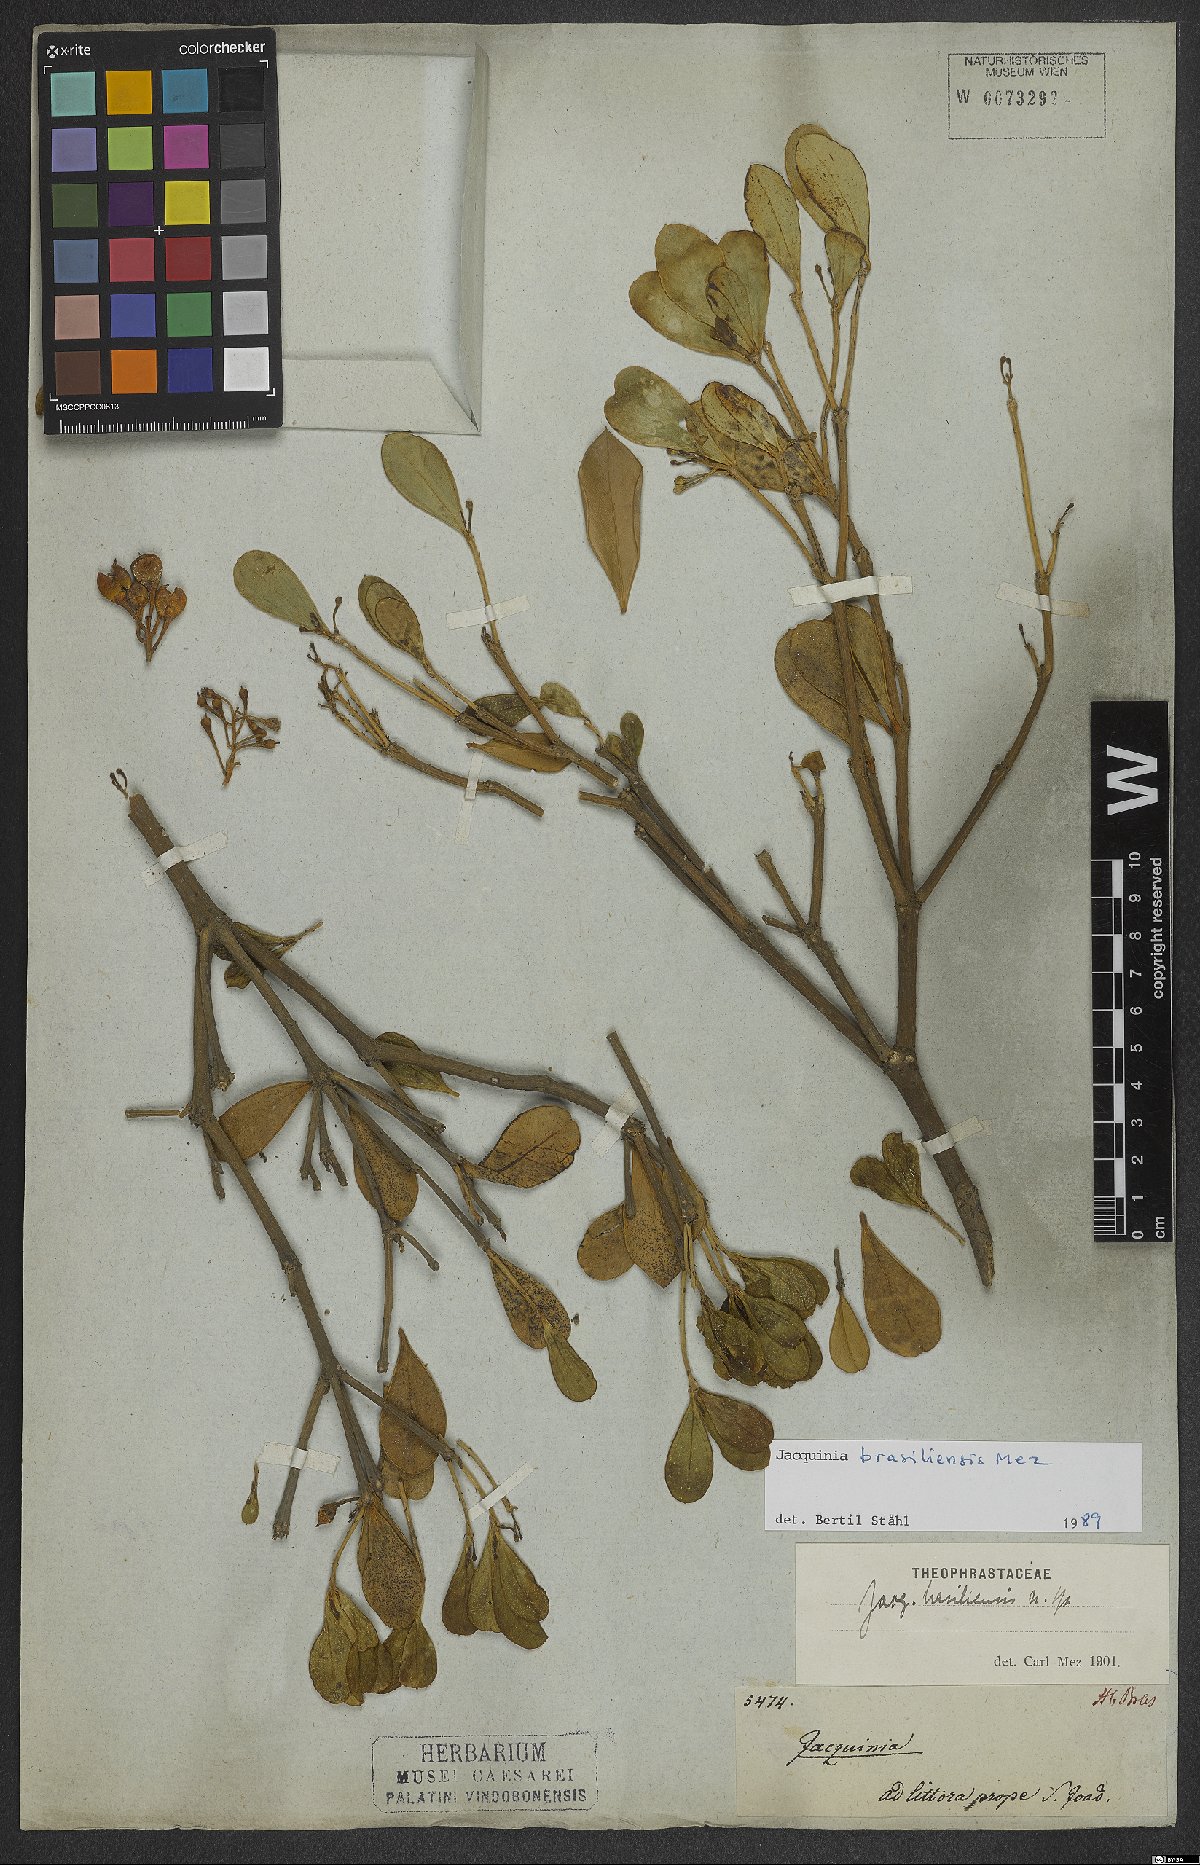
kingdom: Plantae
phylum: Tracheophyta
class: Magnoliopsida
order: Ericales
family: Primulaceae
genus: Jacquinia
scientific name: Jacquinia armillaris
